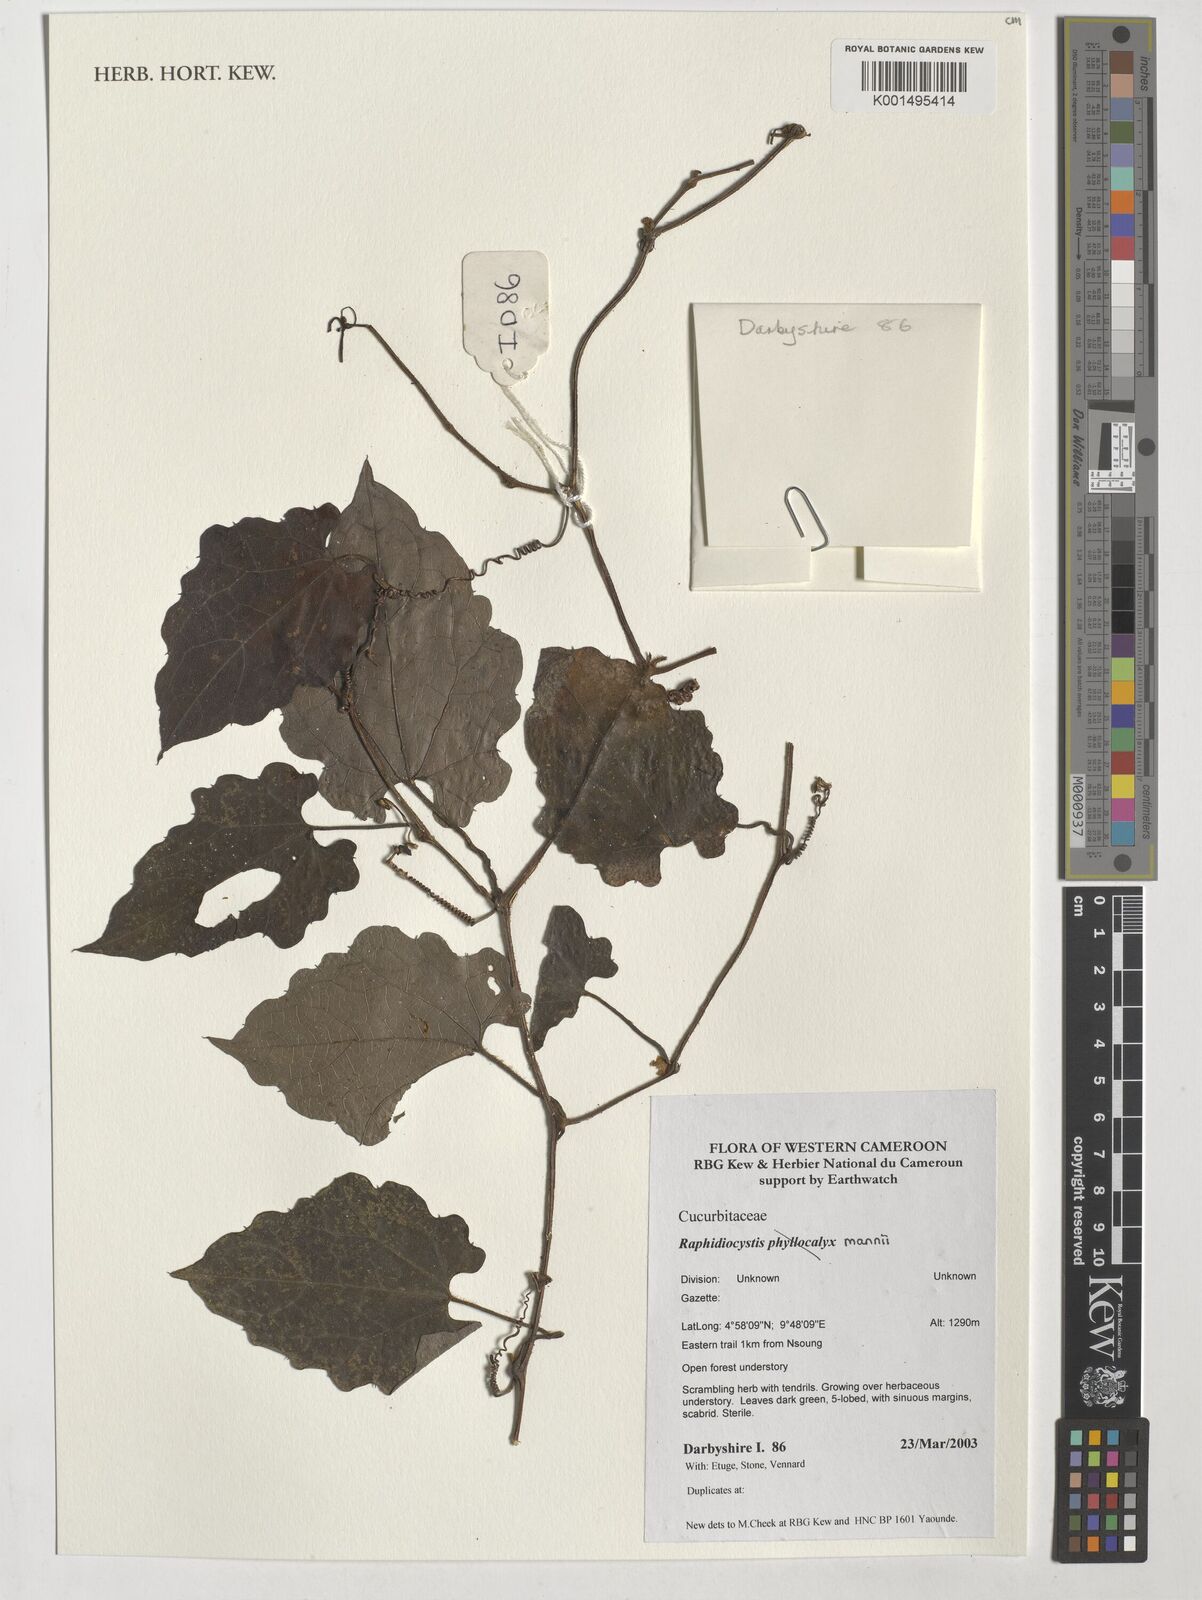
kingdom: Plantae
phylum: Tracheophyta
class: Magnoliopsida
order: Cucurbitales
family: Cucurbitaceae
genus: Raphidiocystis
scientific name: Raphidiocystis mannii
